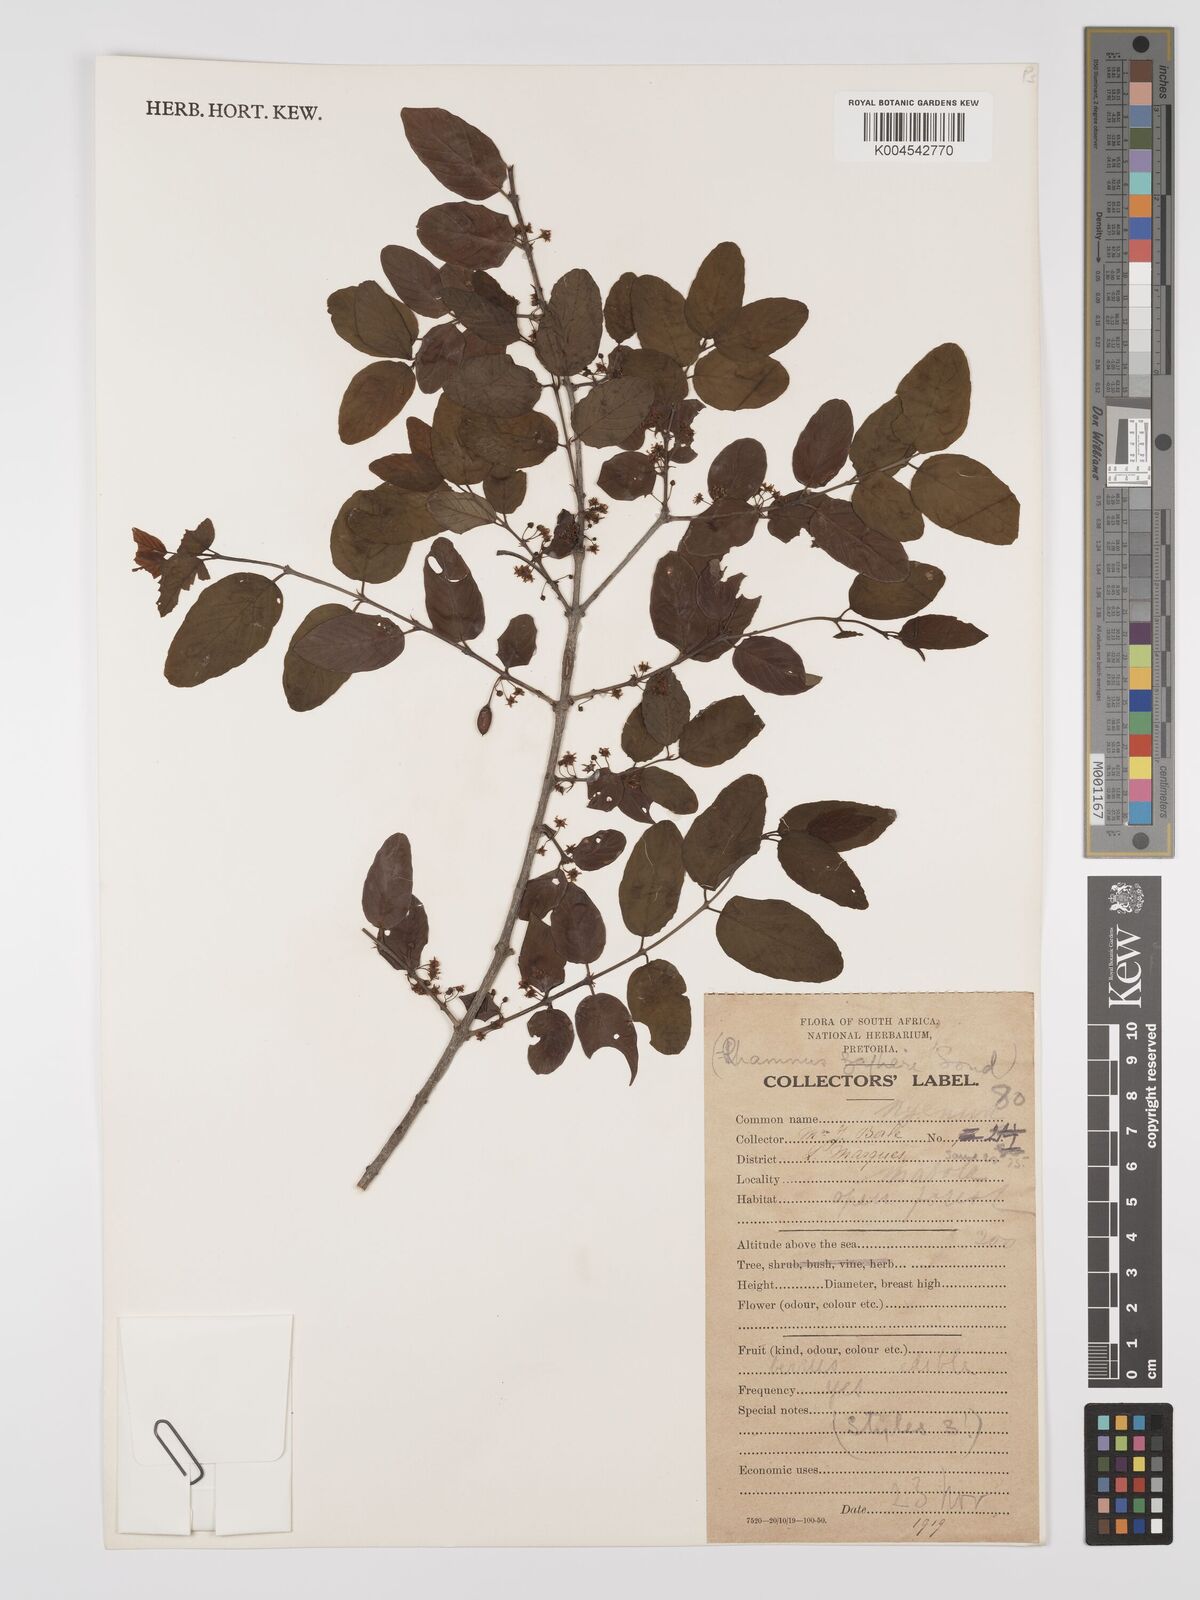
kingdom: Plantae
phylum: Tracheophyta
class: Magnoliopsida
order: Rosales
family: Rhamnaceae
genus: Phyllogeiton
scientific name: Phyllogeiton zeyheri
